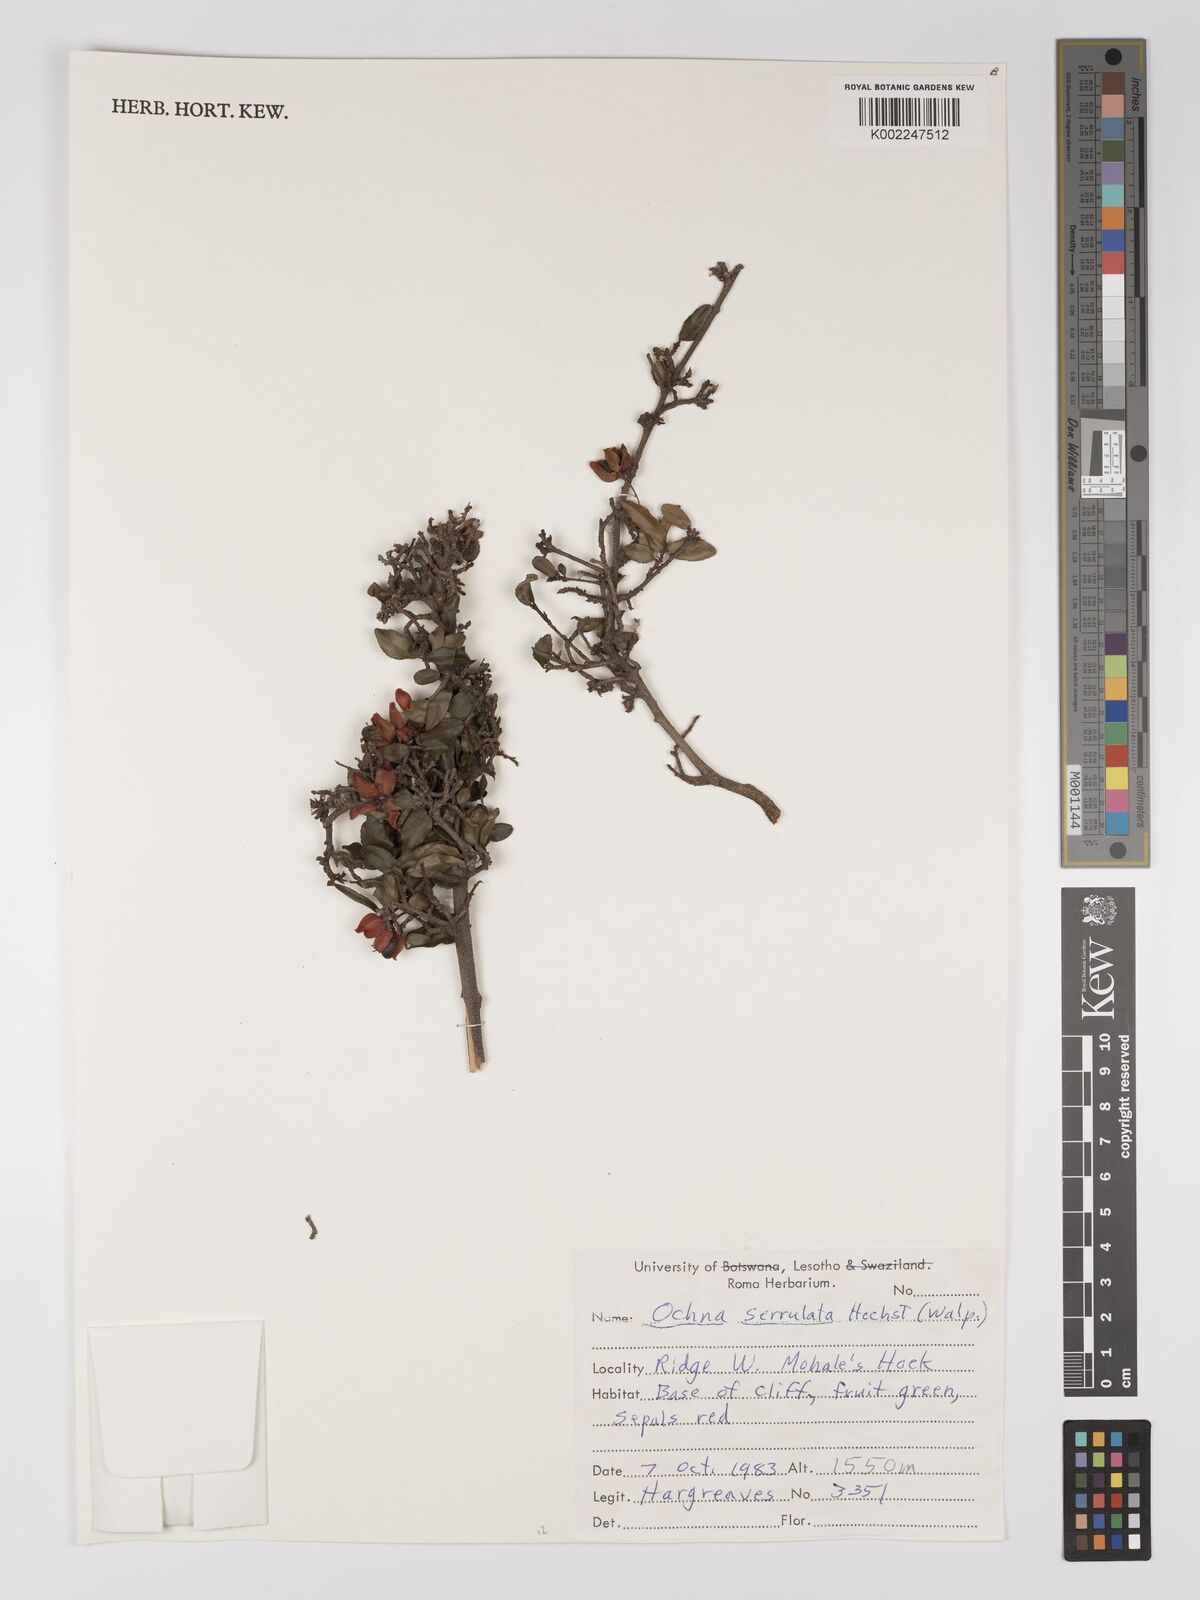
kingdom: Plantae
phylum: Tracheophyta
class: Magnoliopsida
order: Malpighiales
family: Ochnaceae
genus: Ochna
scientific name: Ochna atropurpurea
